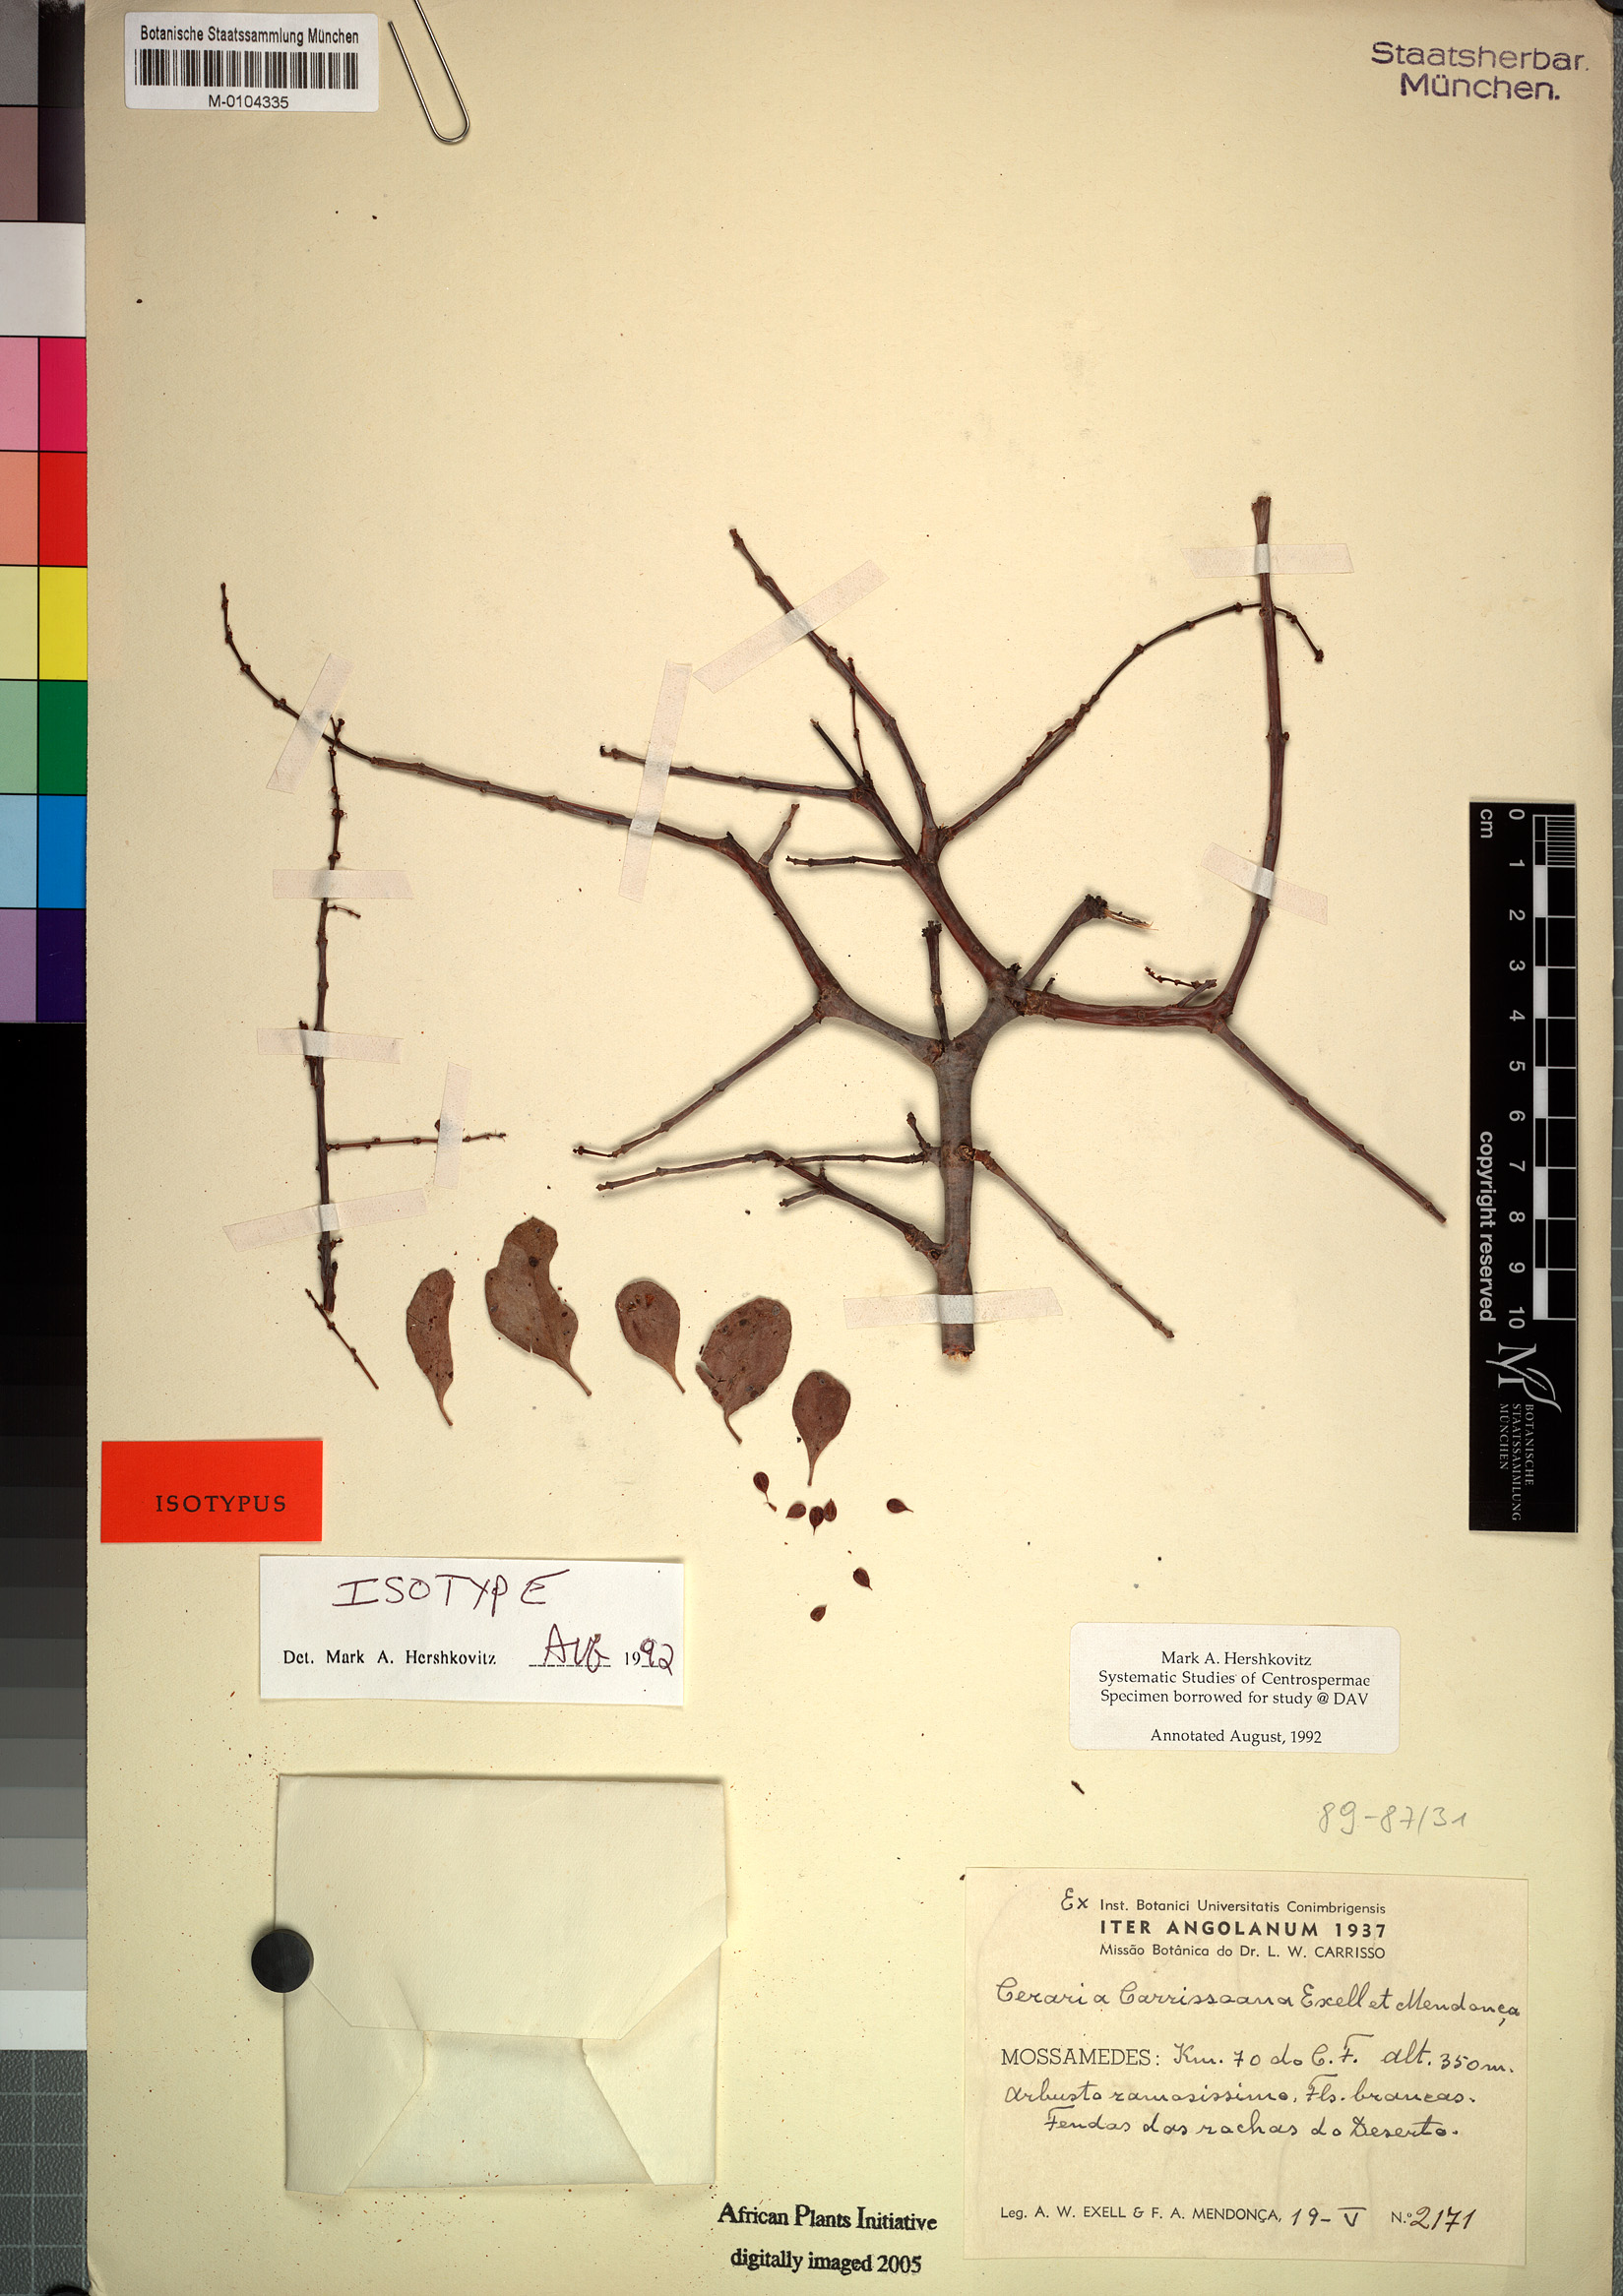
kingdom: Plantae
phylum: Tracheophyta
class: Magnoliopsida
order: Caryophyllales
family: Didiereaceae
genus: Portulacaria
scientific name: Portulacaria carrissoana
